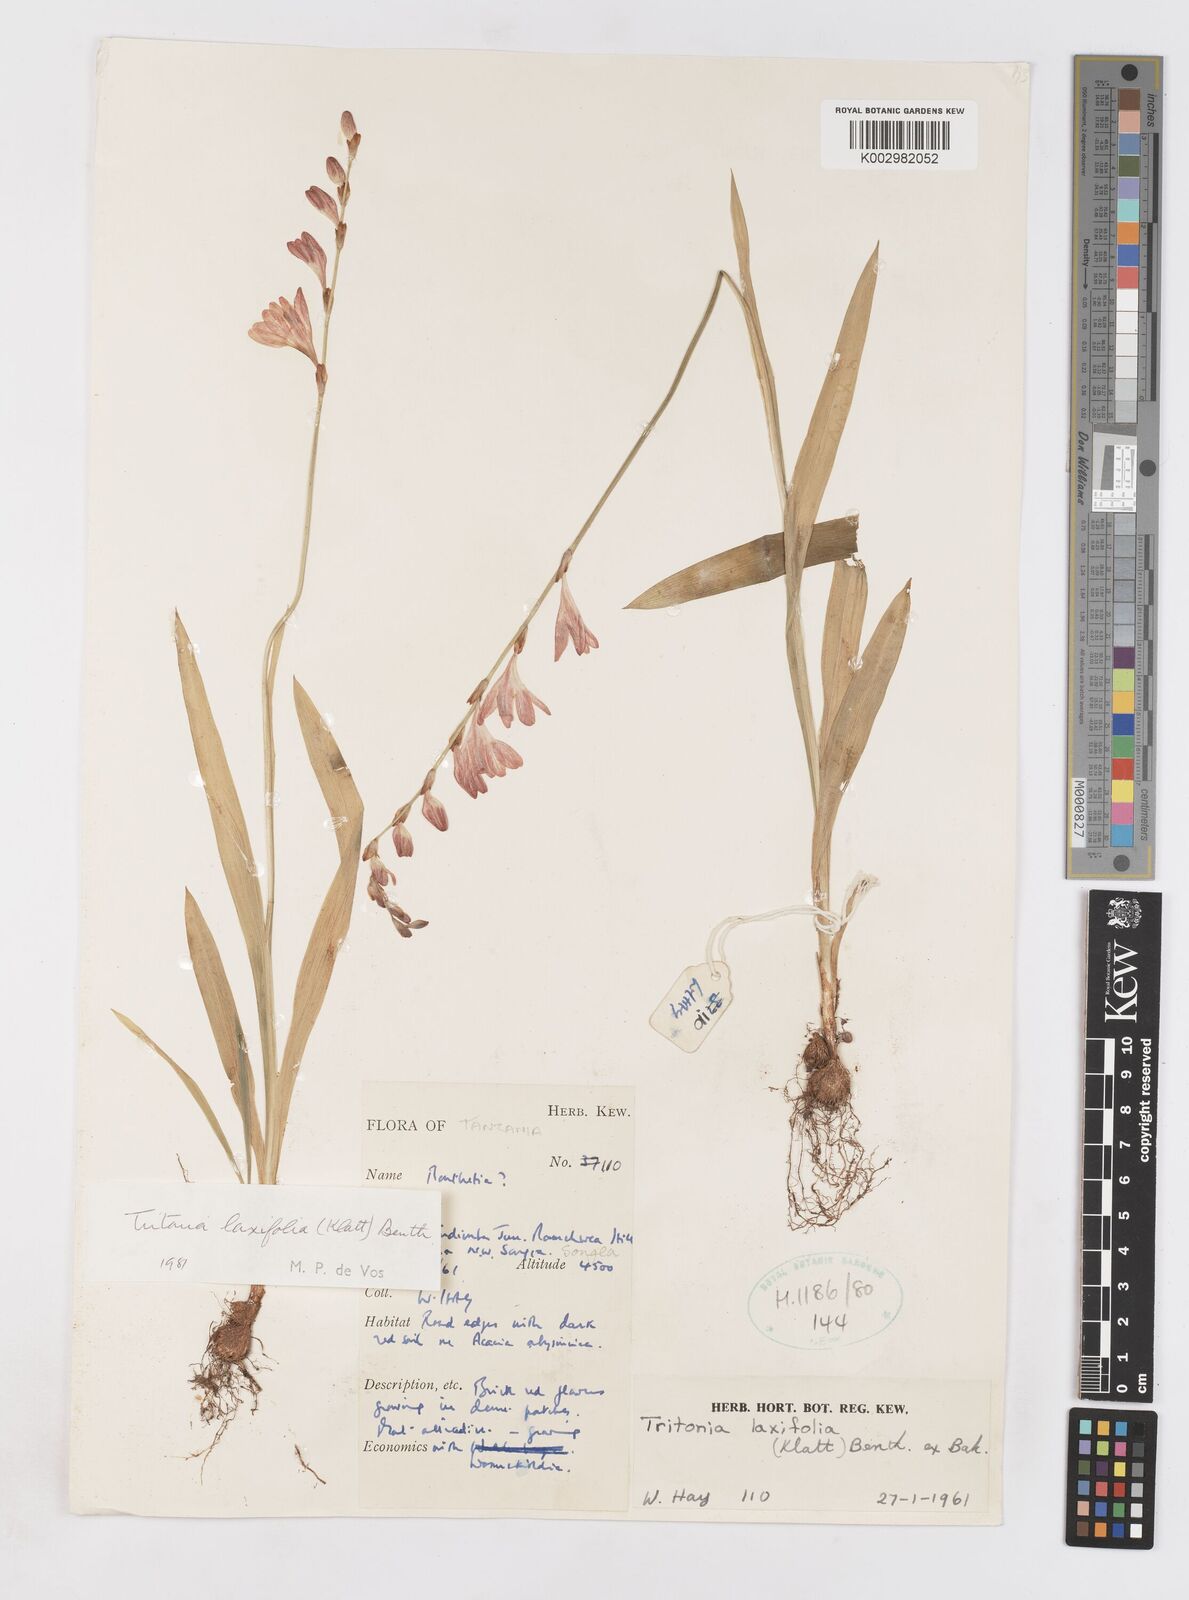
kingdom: Plantae
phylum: Tracheophyta
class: Liliopsida
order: Asparagales
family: Iridaceae
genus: Tritonia
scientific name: Tritonia
